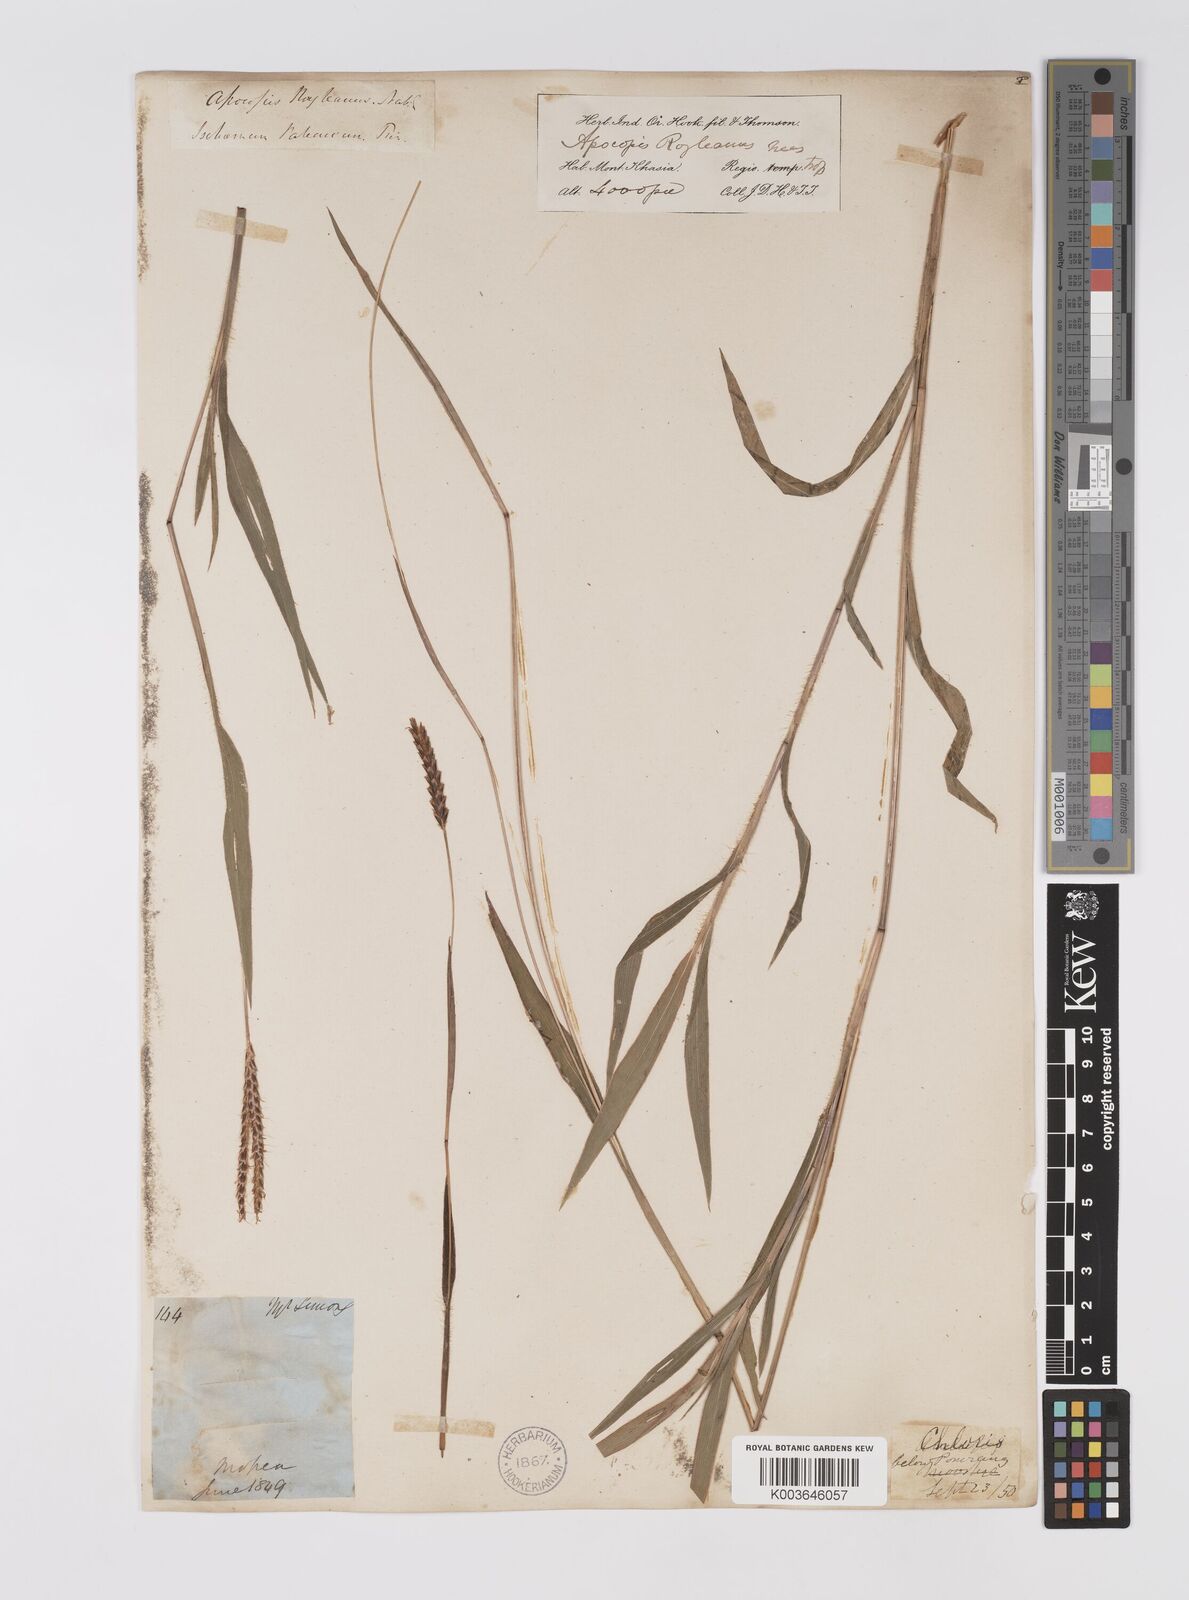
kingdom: Plantae
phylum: Tracheophyta
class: Liliopsida
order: Poales
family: Poaceae
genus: Apocopis
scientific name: Apocopis paleaceus
